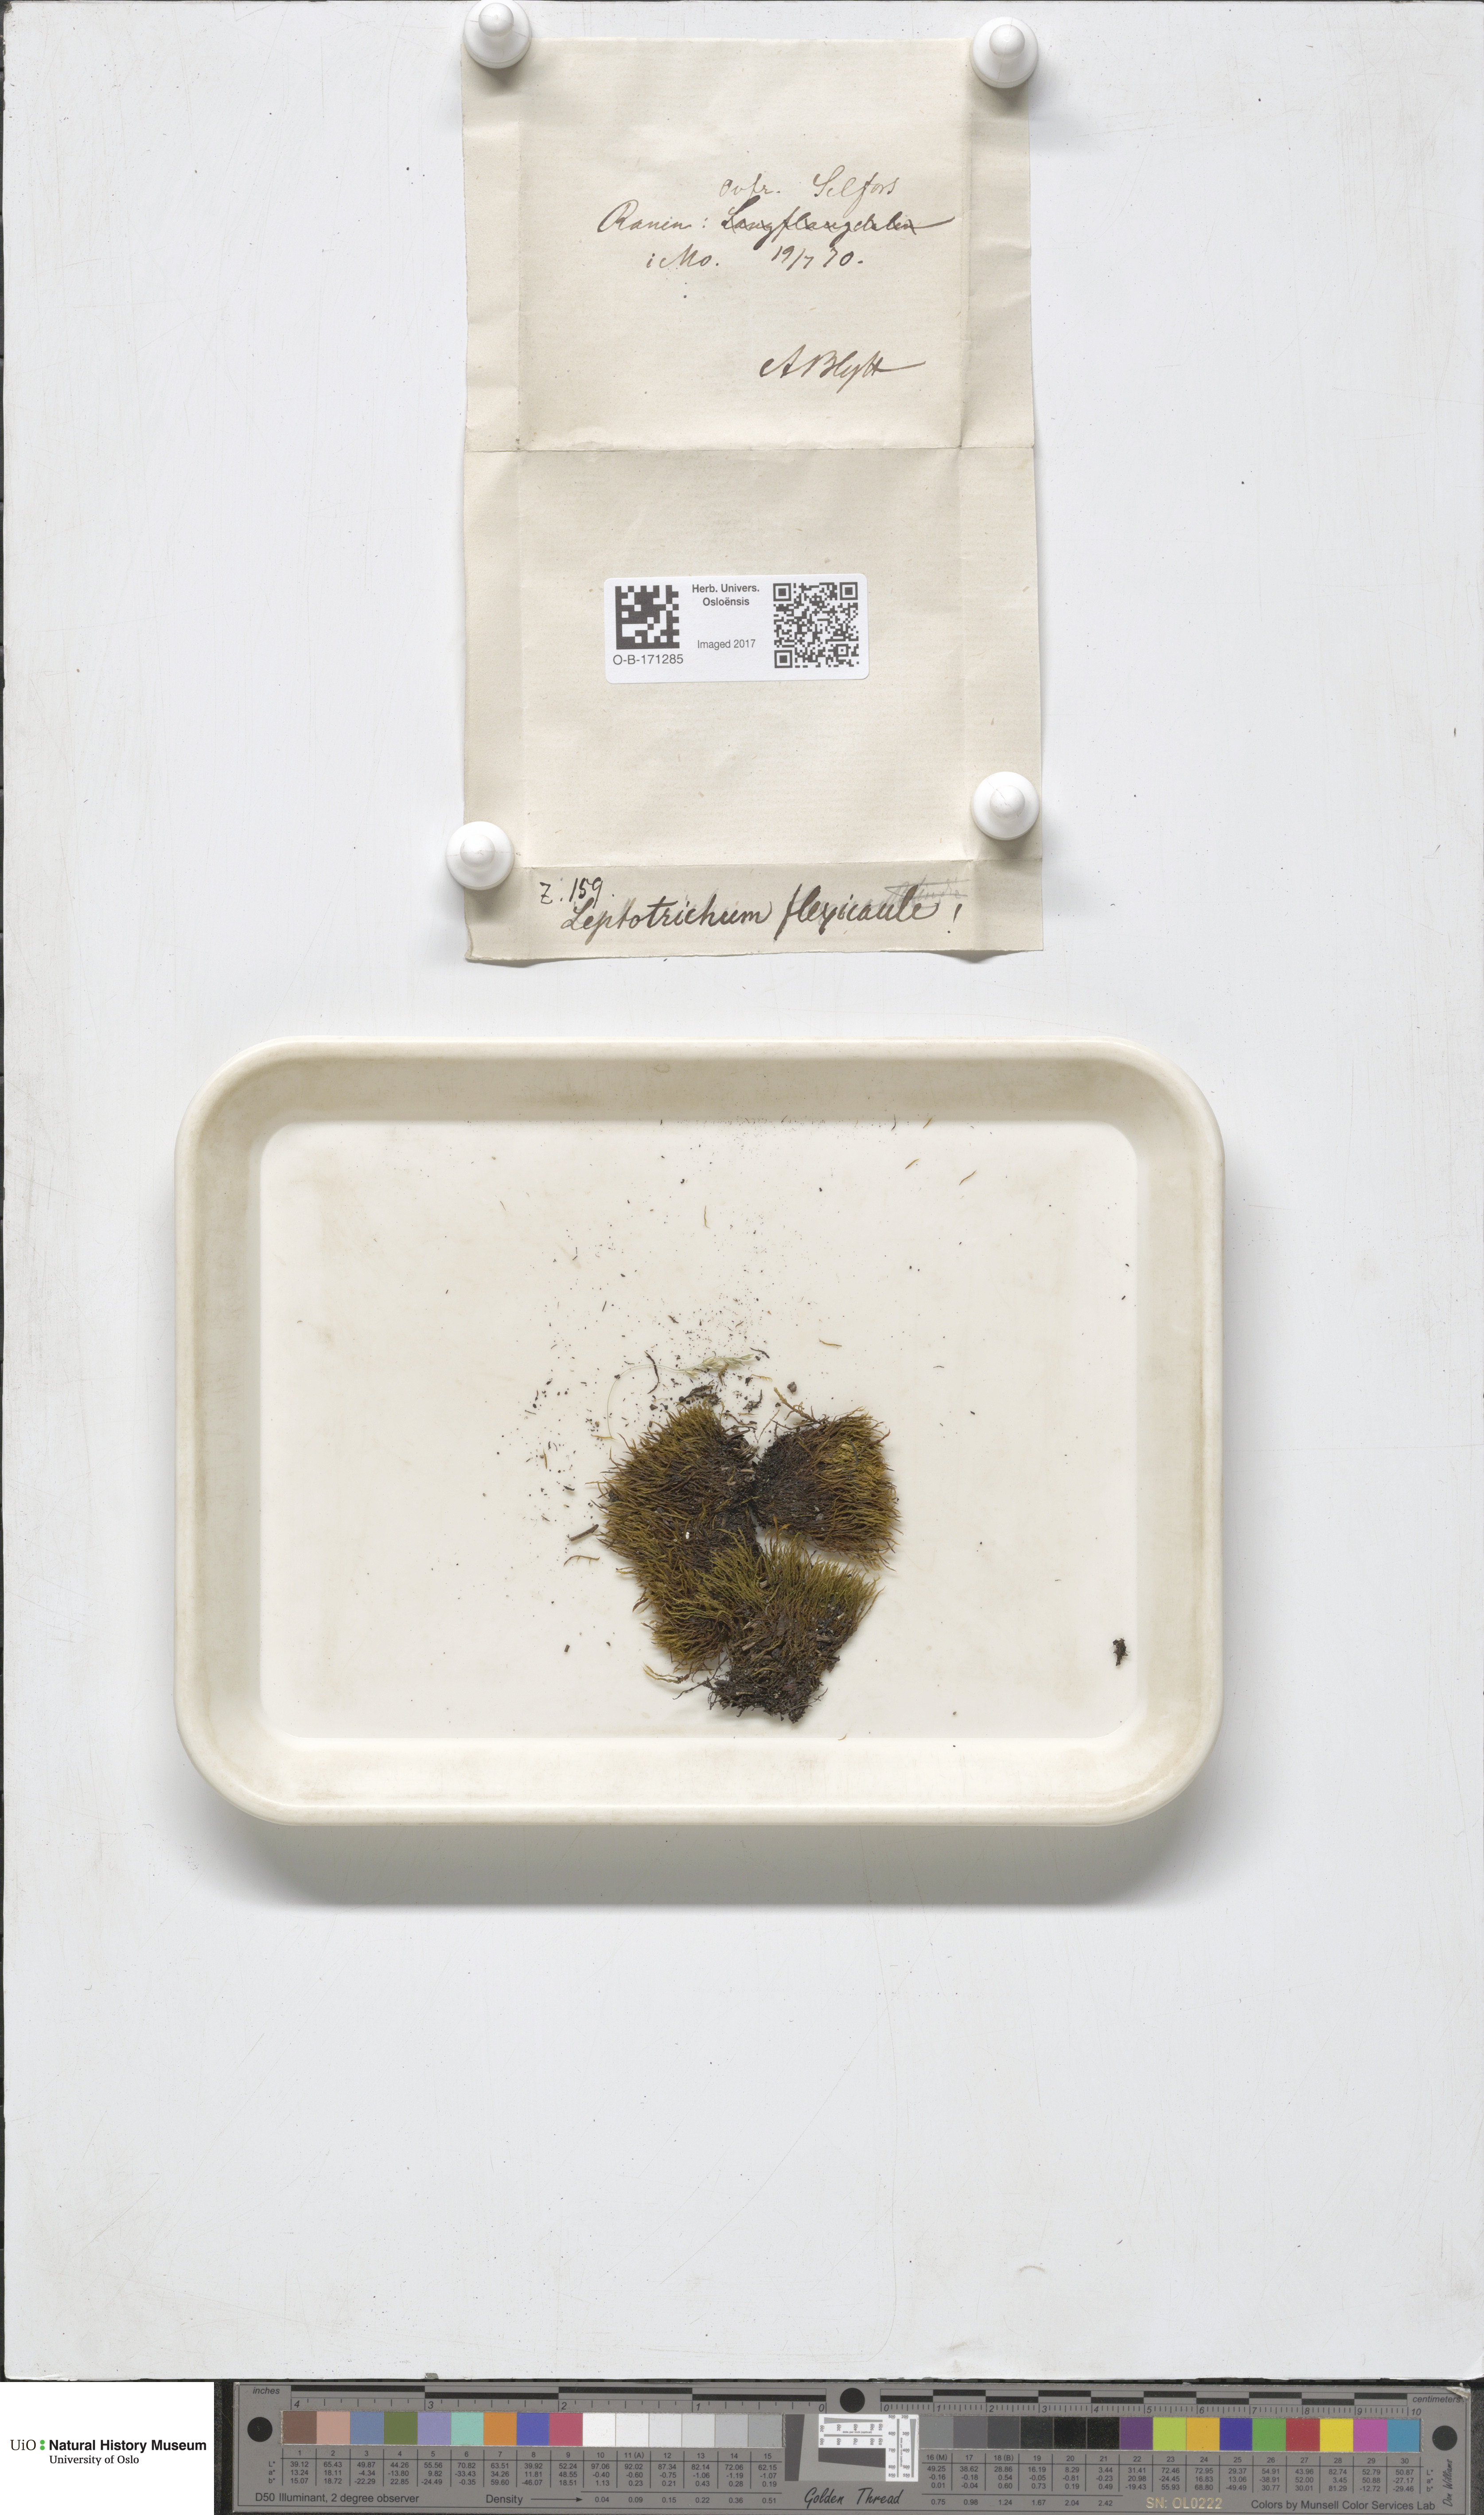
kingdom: Plantae
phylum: Bryophyta
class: Bryopsida
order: Scouleriales
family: Flexitrichaceae
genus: Flexitrichum
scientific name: Flexitrichum flexicaule
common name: Bendy ditrichum
